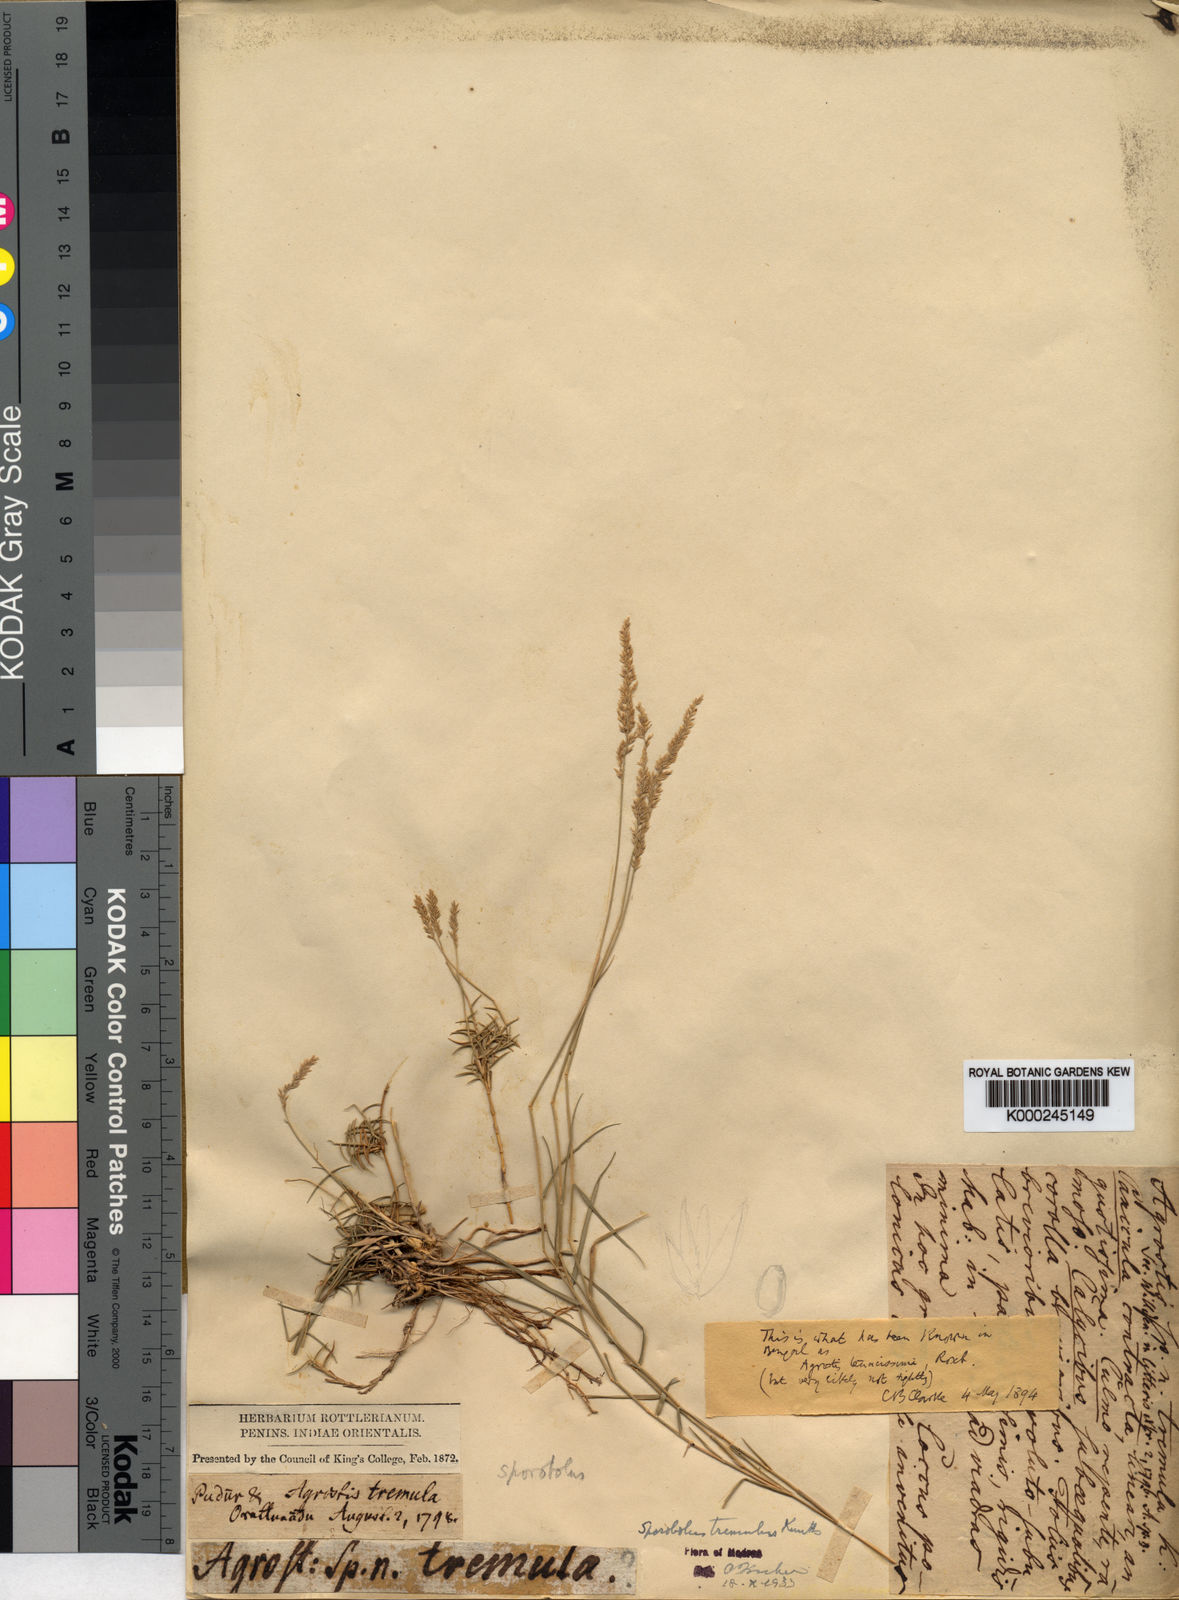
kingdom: Plantae
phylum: Tracheophyta
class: Liliopsida
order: Poales
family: Poaceae
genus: Sporobolus
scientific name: Sporobolus virginicus
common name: Beach dropseed
